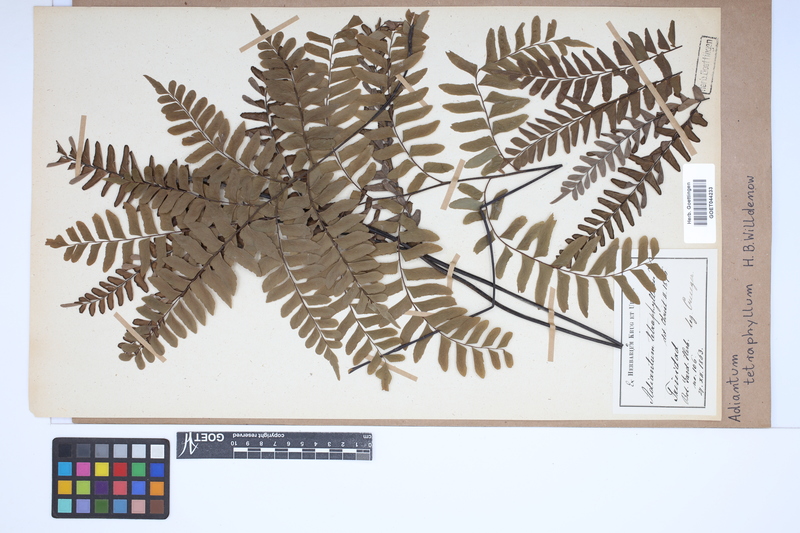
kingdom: Plantae
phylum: Tracheophyta
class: Polypodiopsida
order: Polypodiales
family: Pteridaceae
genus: Adiantum
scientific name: Adiantum tetraphyllum
